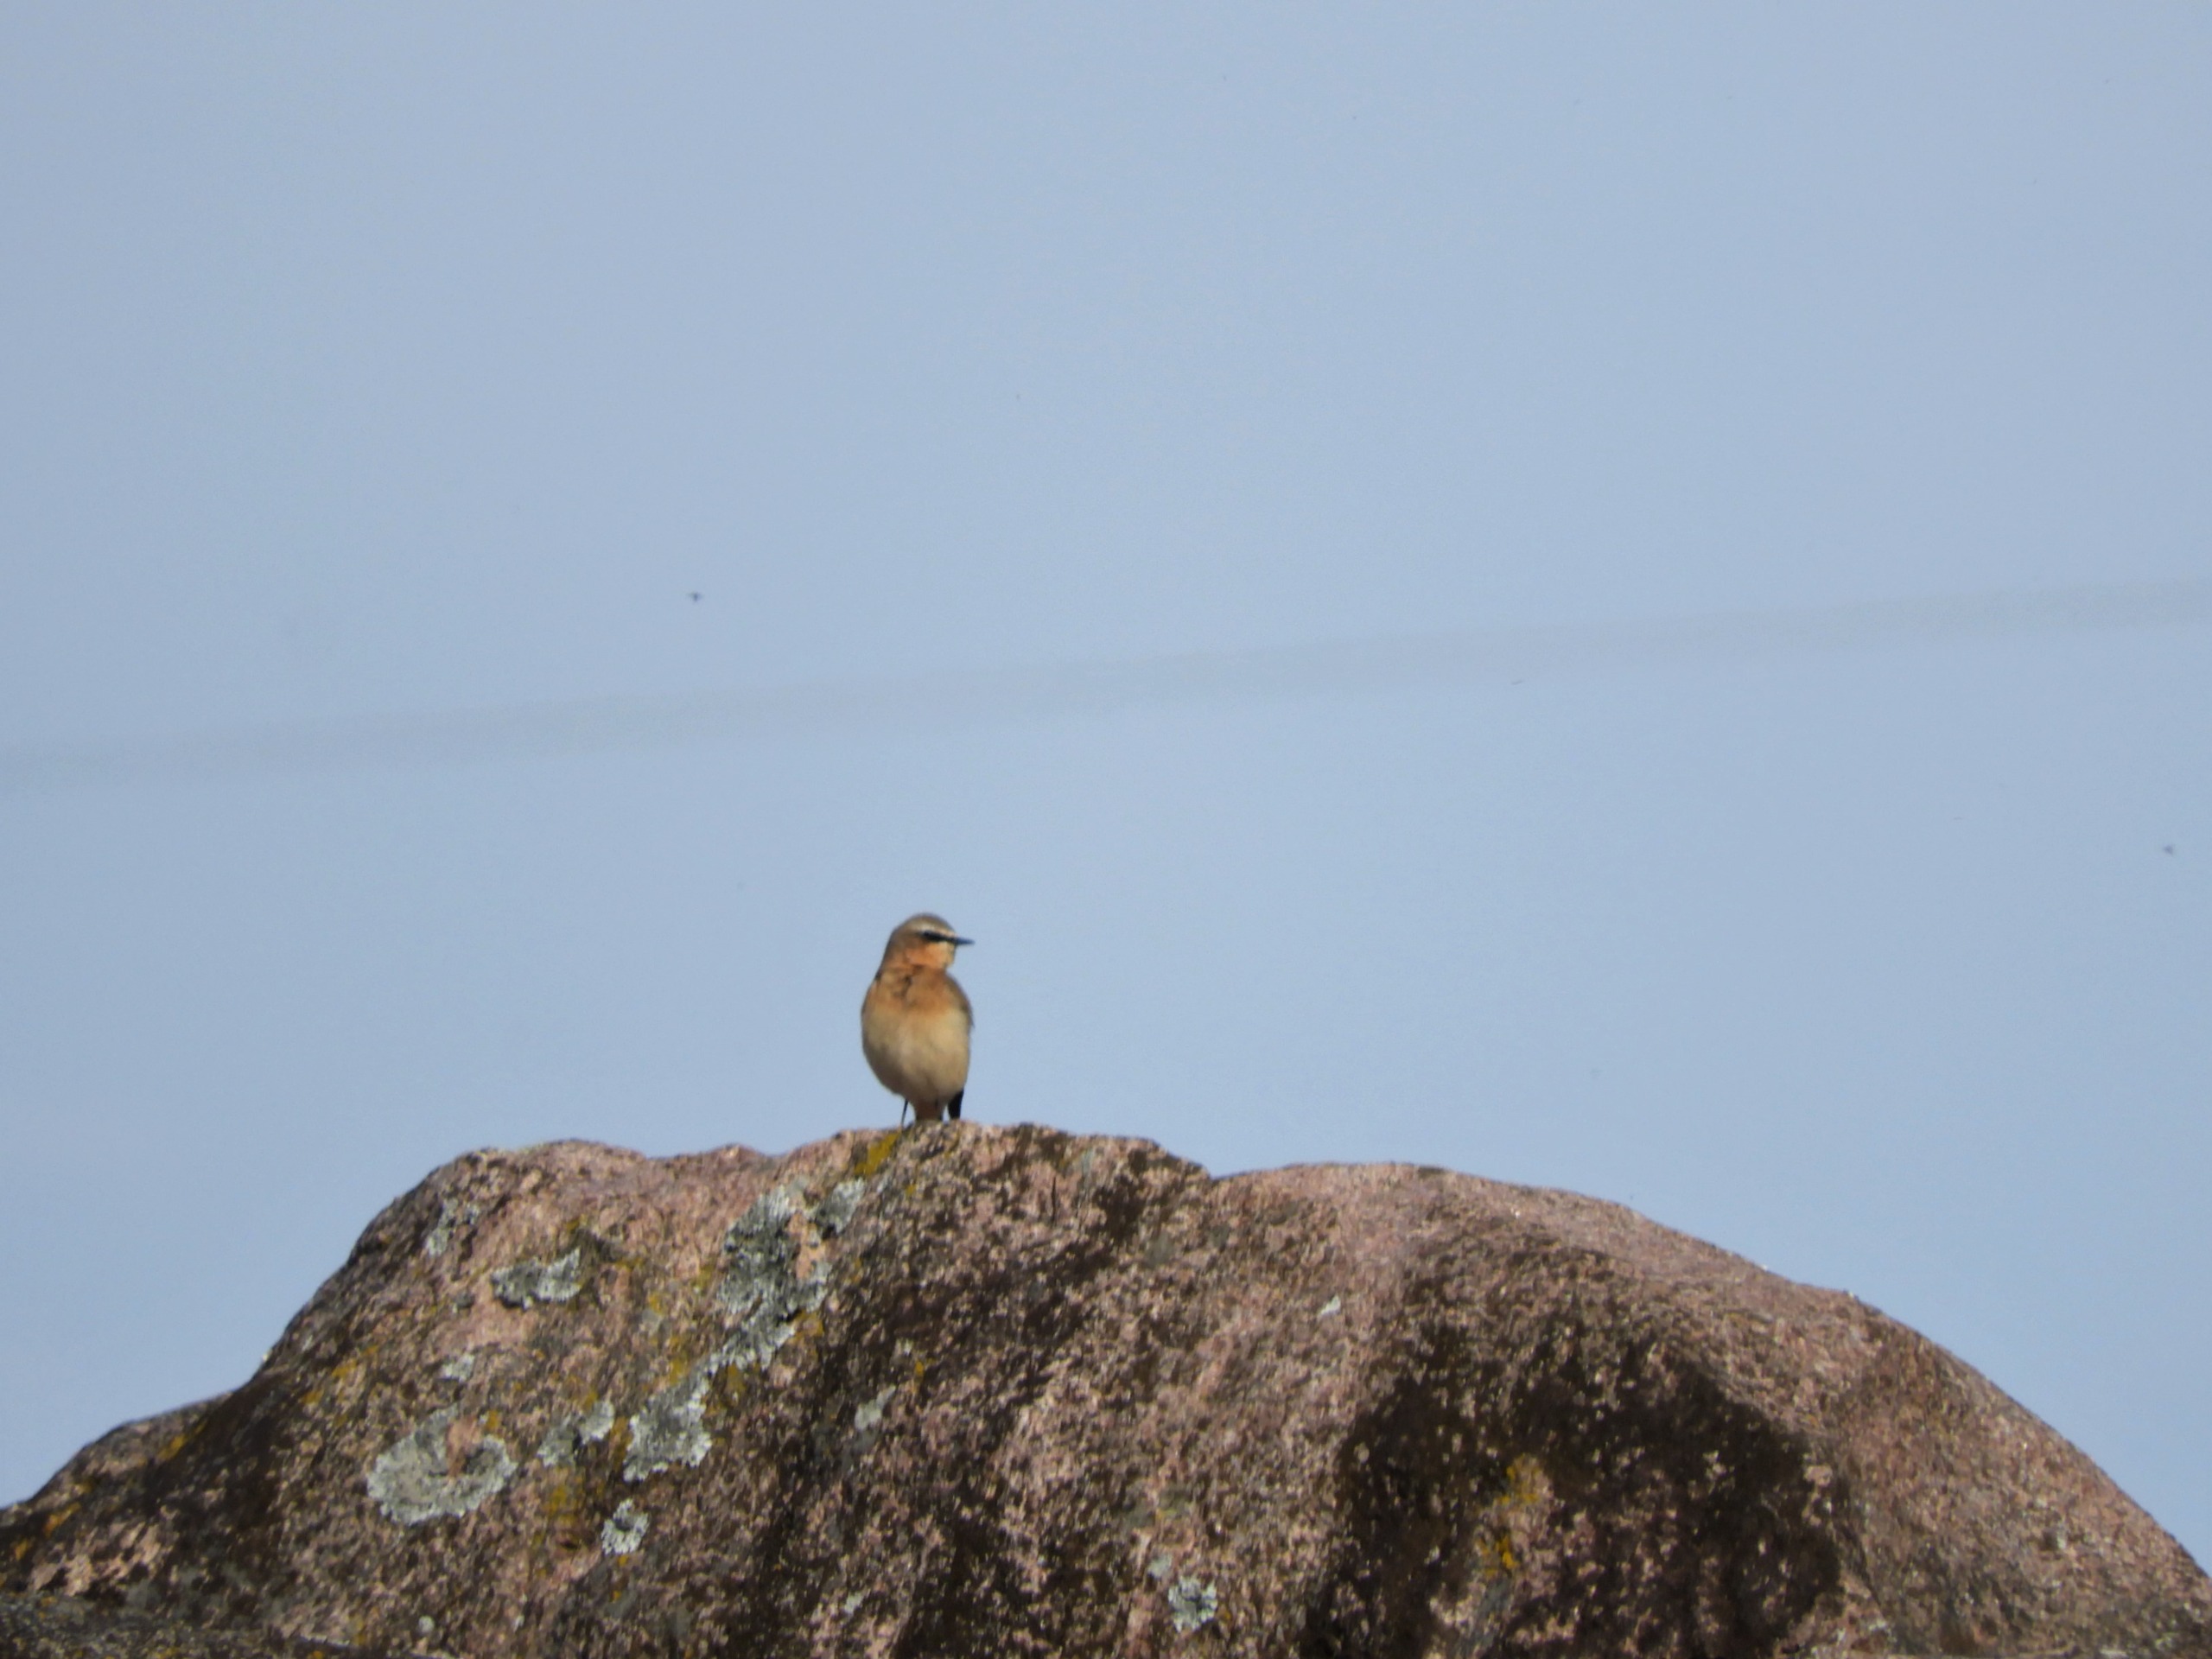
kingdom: Animalia
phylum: Chordata
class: Aves
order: Passeriformes
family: Muscicapidae
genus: Oenanthe
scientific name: Oenanthe oenanthe
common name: Stenpikker
